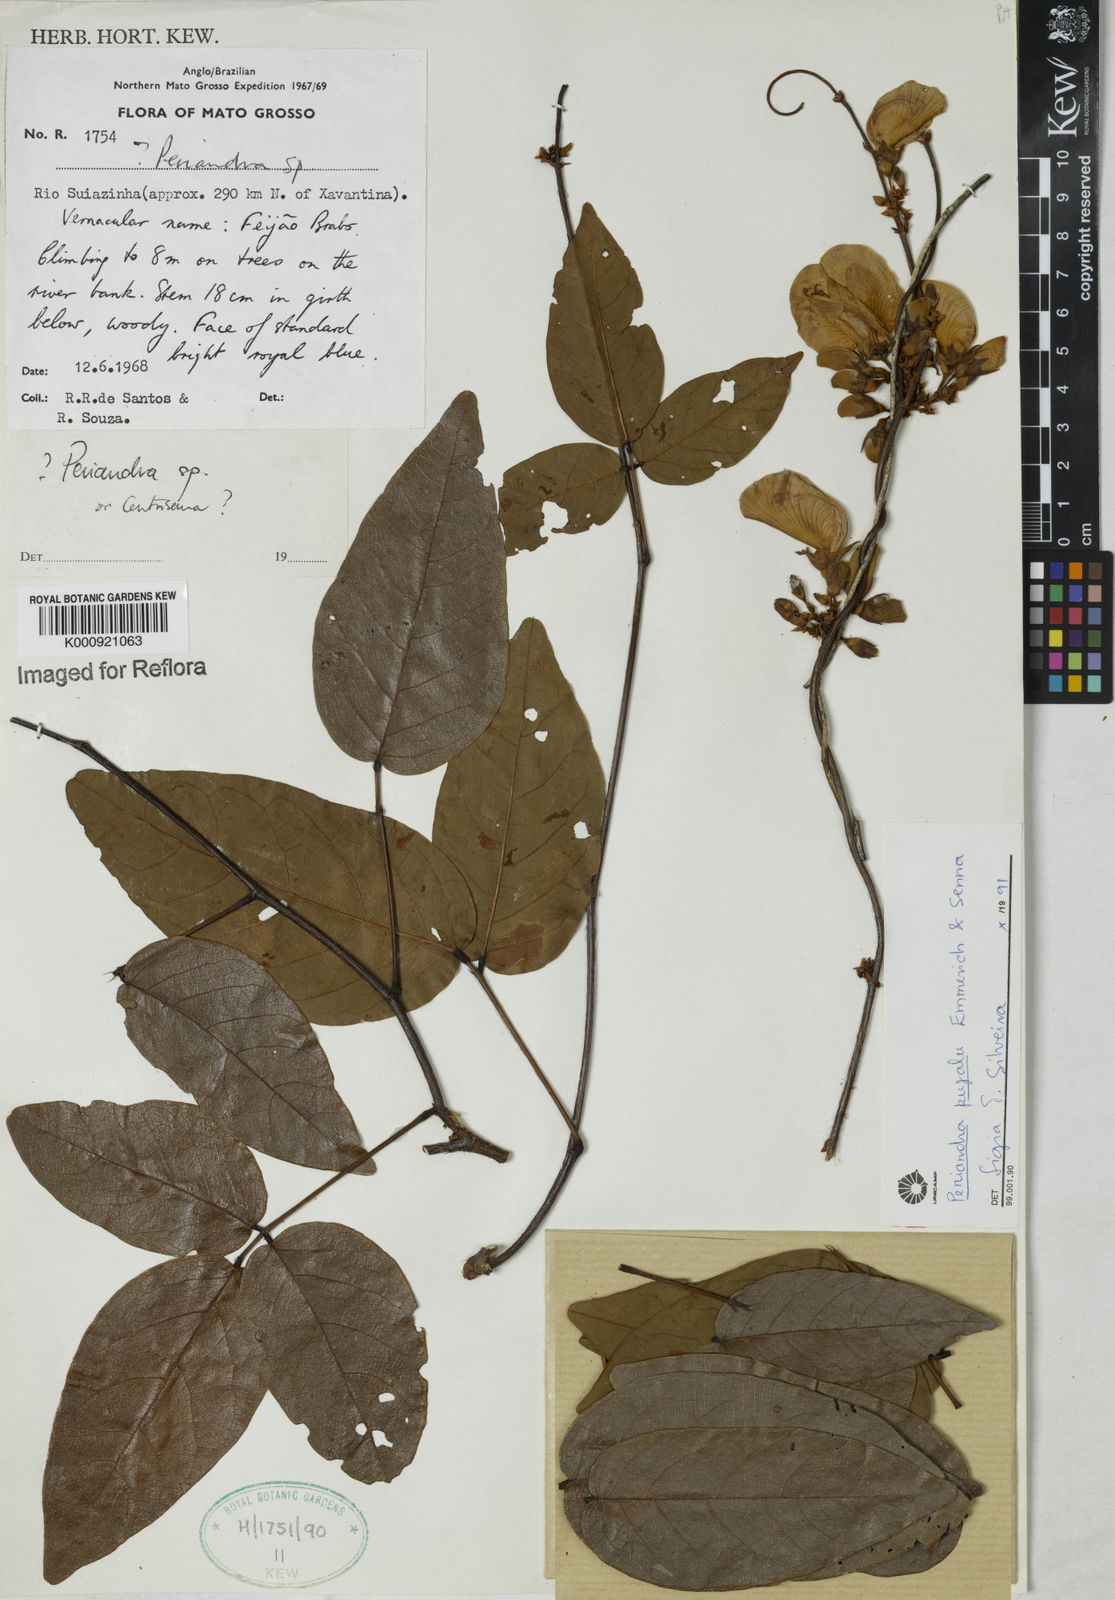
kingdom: Plantae
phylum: Tracheophyta
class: Magnoliopsida
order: Fabales
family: Fabaceae
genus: Periandra
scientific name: Periandra pujalu
